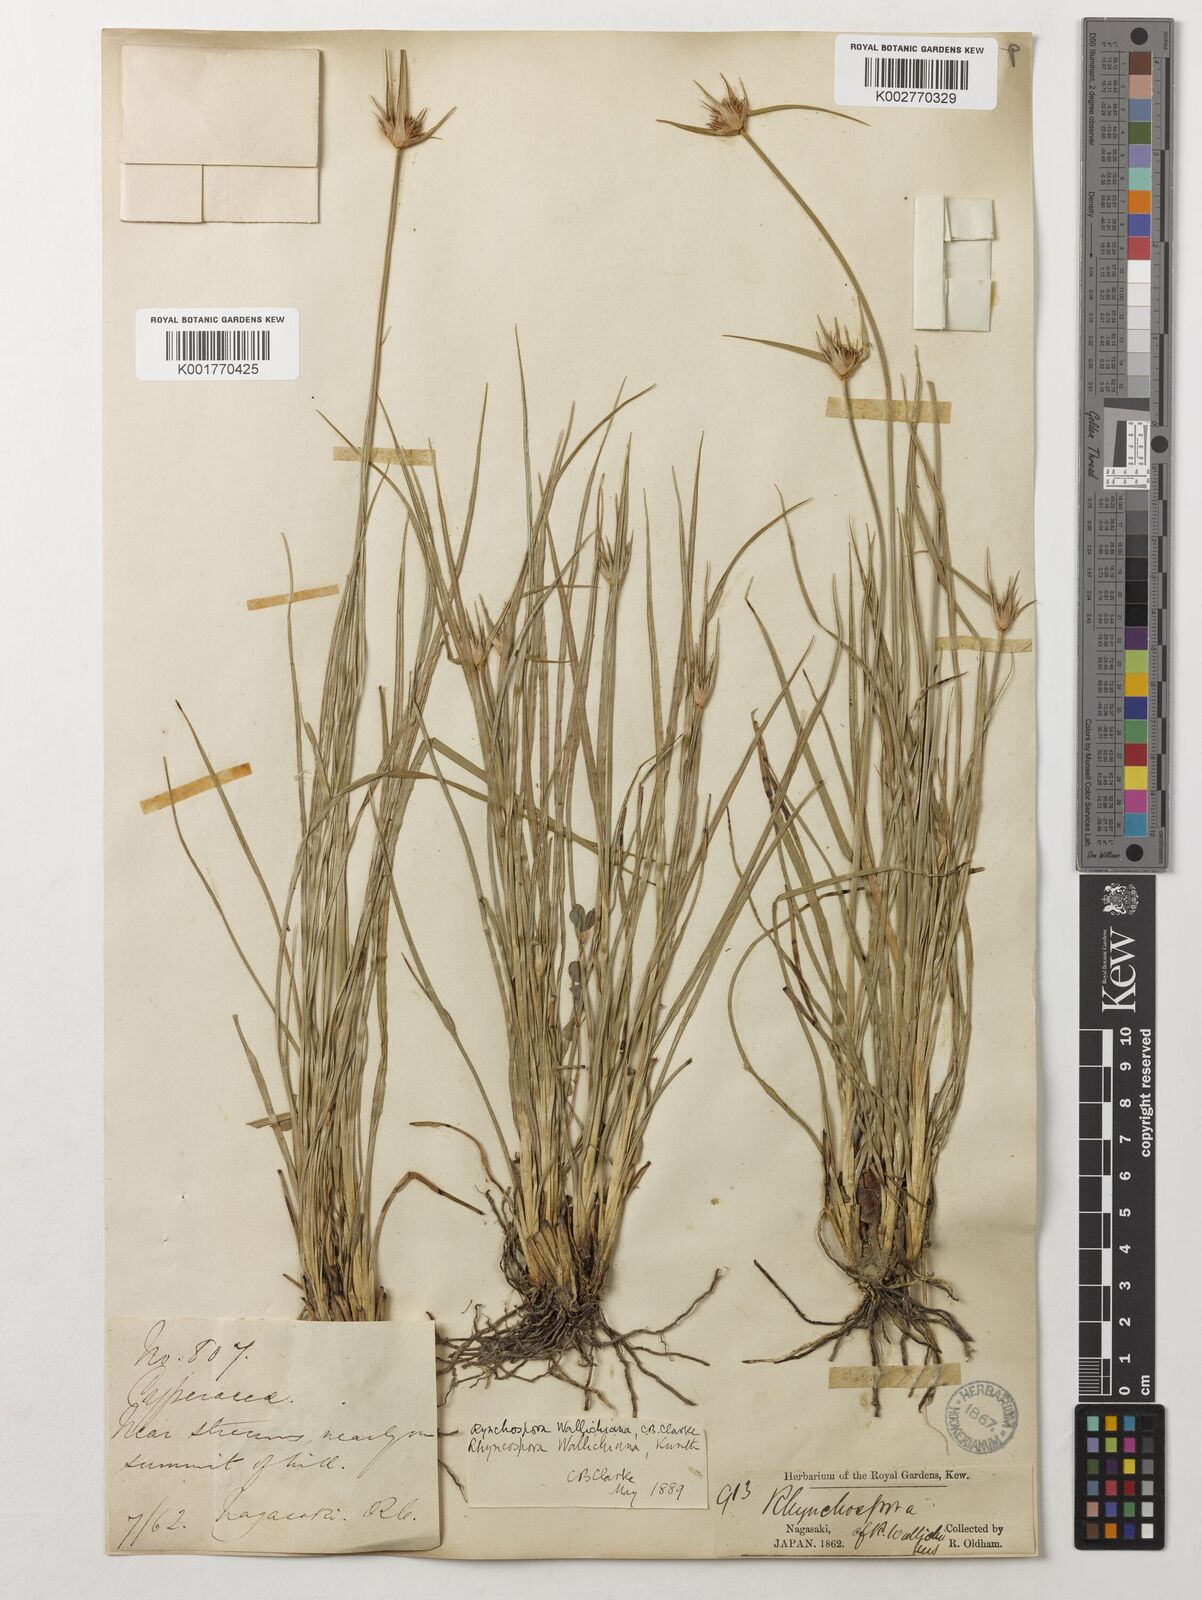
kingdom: Plantae
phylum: Tracheophyta
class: Liliopsida
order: Poales
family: Cyperaceae
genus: Rhynchospora
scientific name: Rhynchospora rubra
